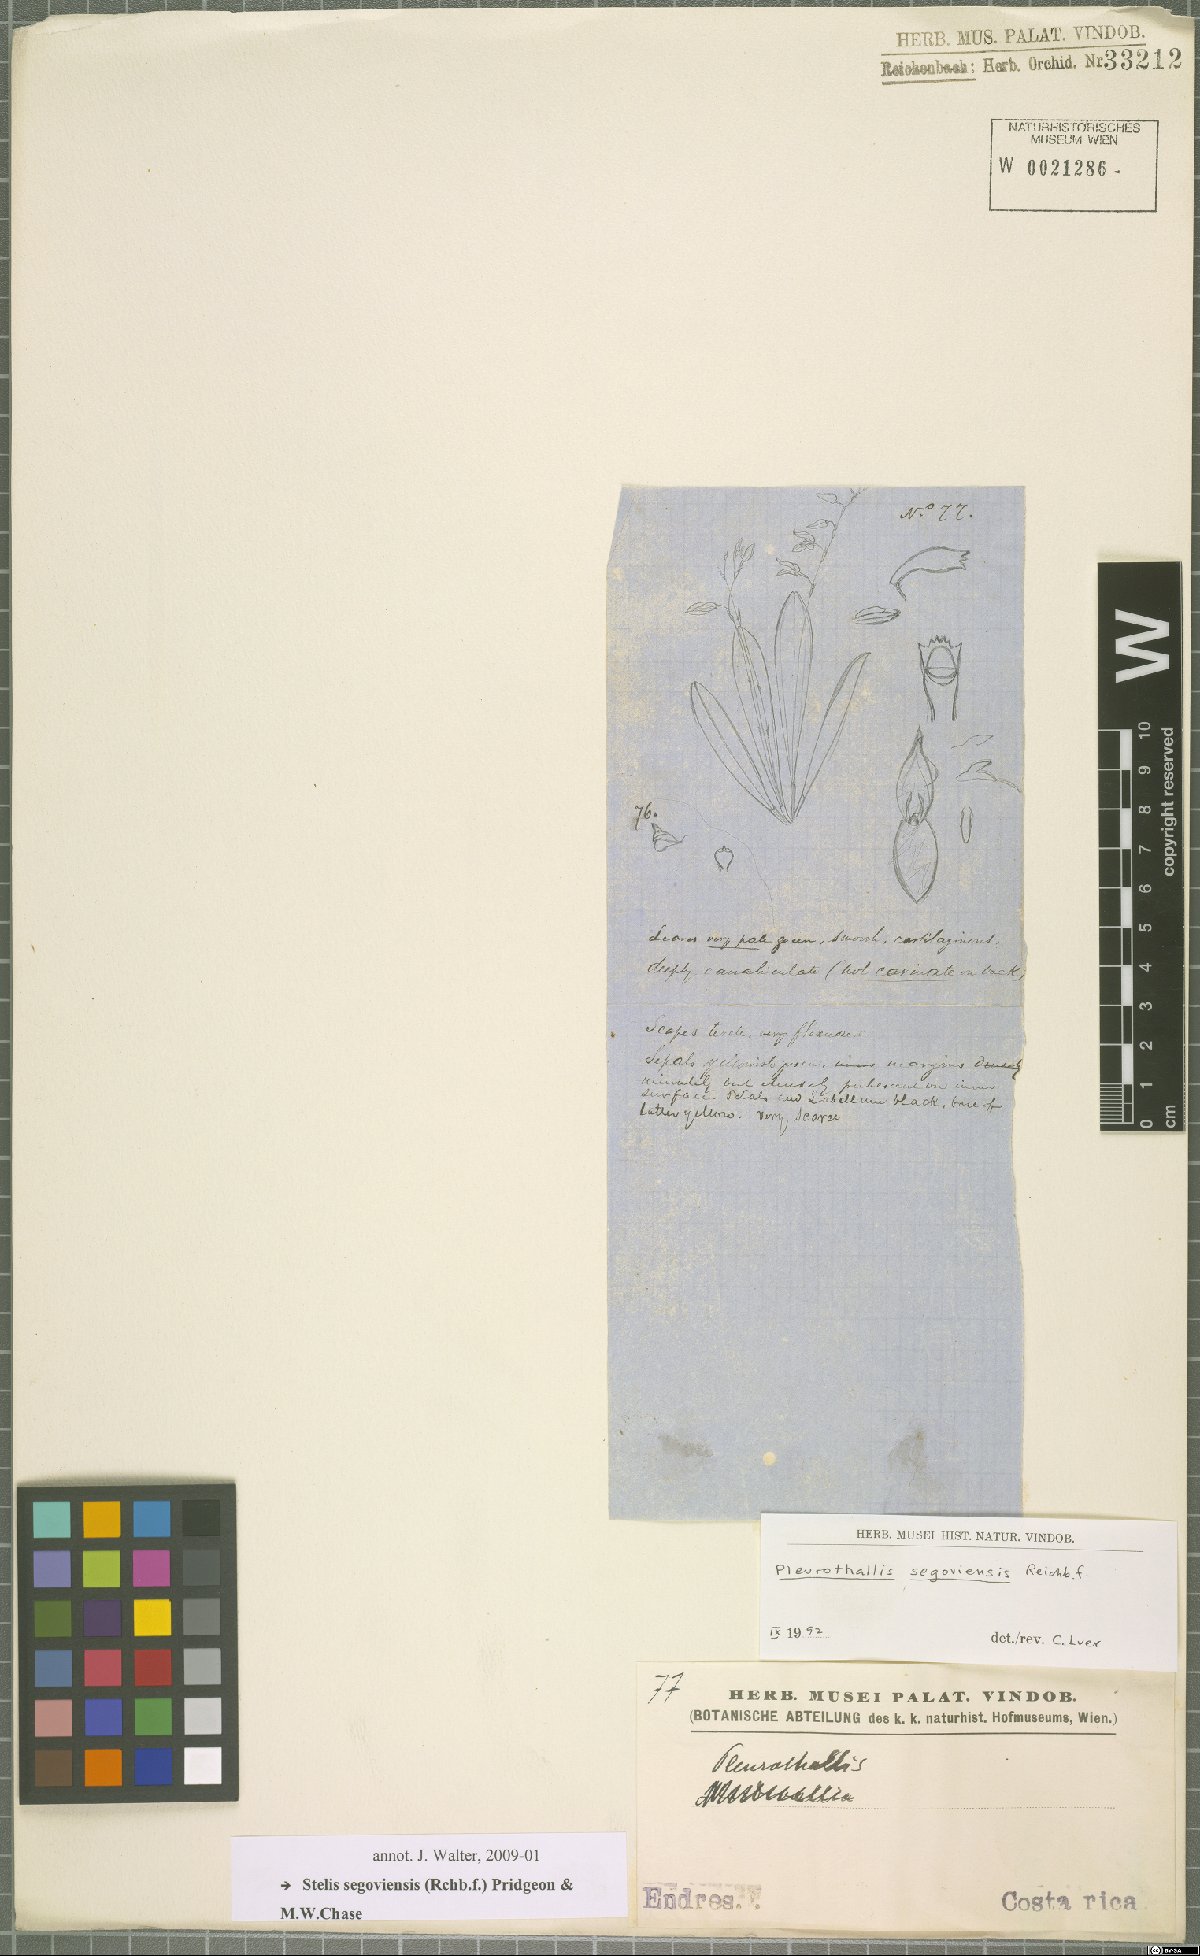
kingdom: Plantae
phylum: Tracheophyta
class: Liliopsida
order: Asparagales
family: Orchidaceae
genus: Stelis
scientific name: Stelis segoviensis
